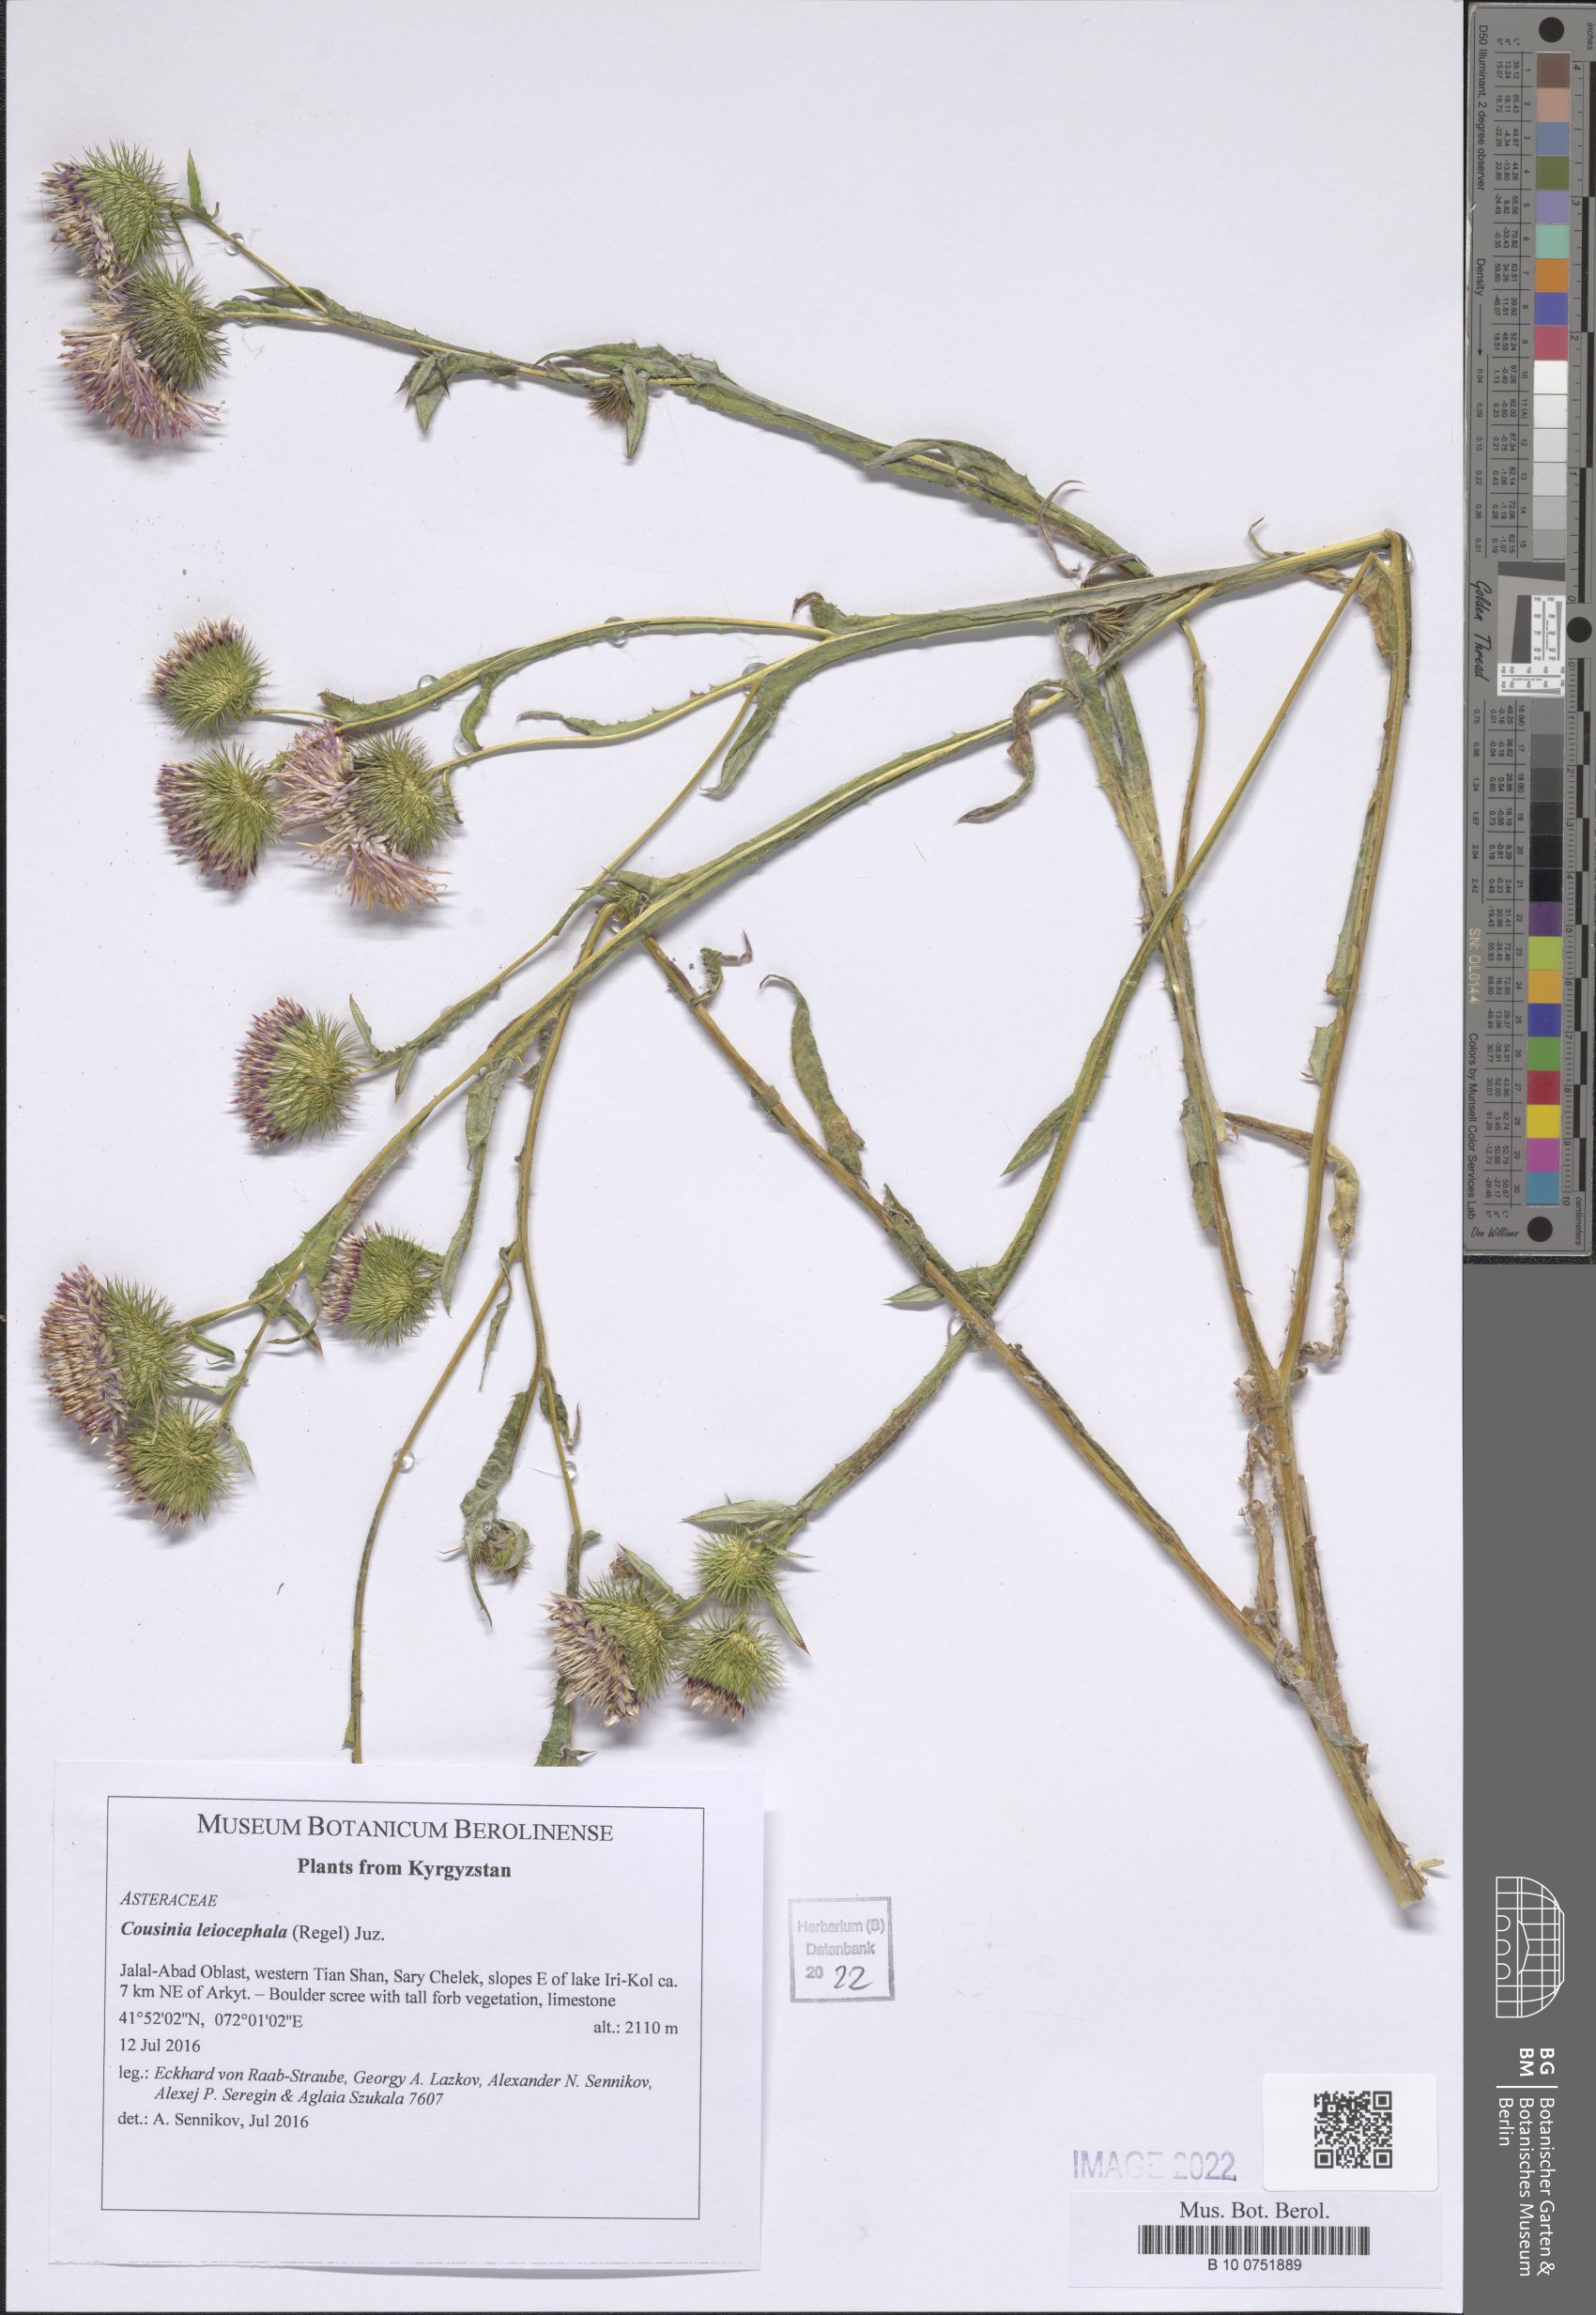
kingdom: Plantae
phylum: Tracheophyta
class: Magnoliopsida
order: Asterales
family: Asteraceae
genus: Cousinia
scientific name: Cousinia leiocephala
